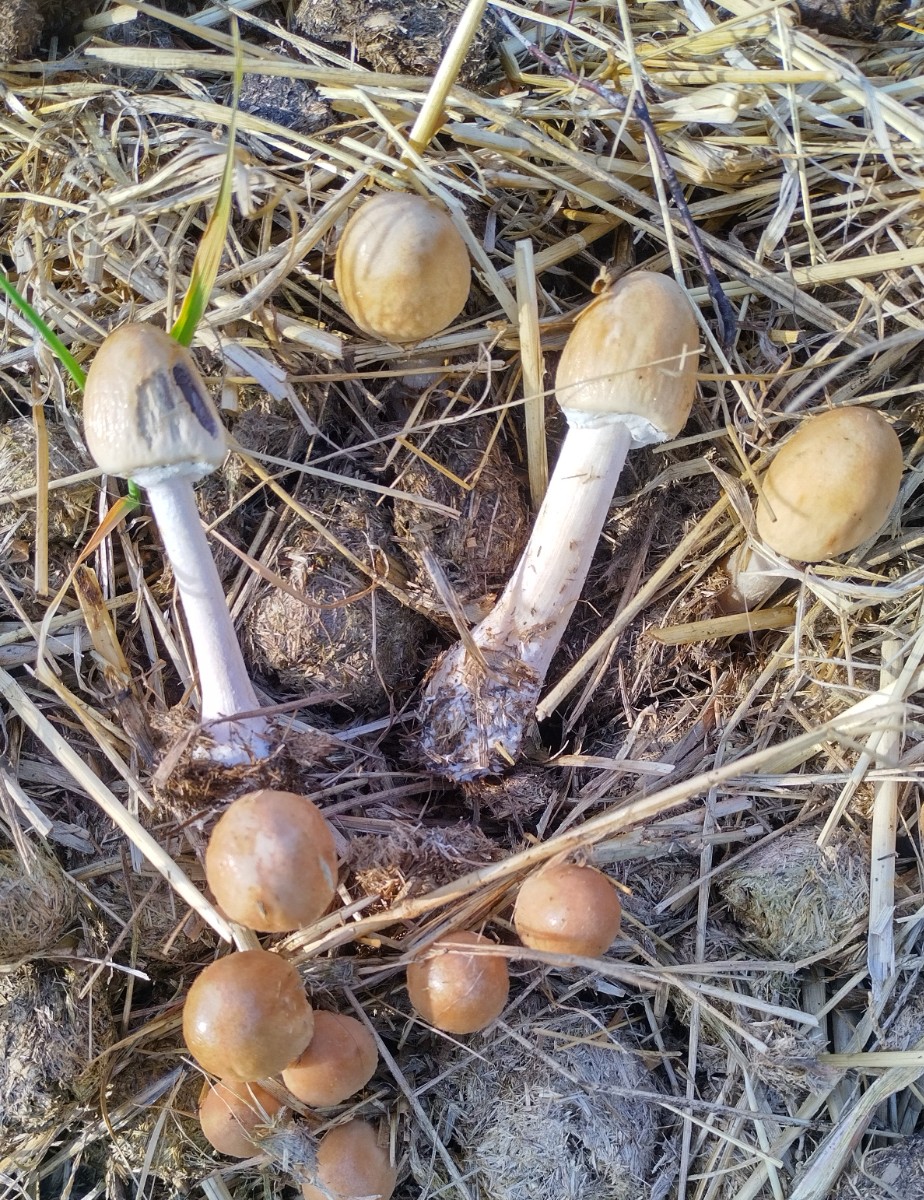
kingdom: Fungi
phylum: Basidiomycota
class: Agaricomycetes
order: Agaricales
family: Bolbitiaceae
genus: Panaeolus
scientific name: Panaeolus semiovatus
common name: ring-glanshat
